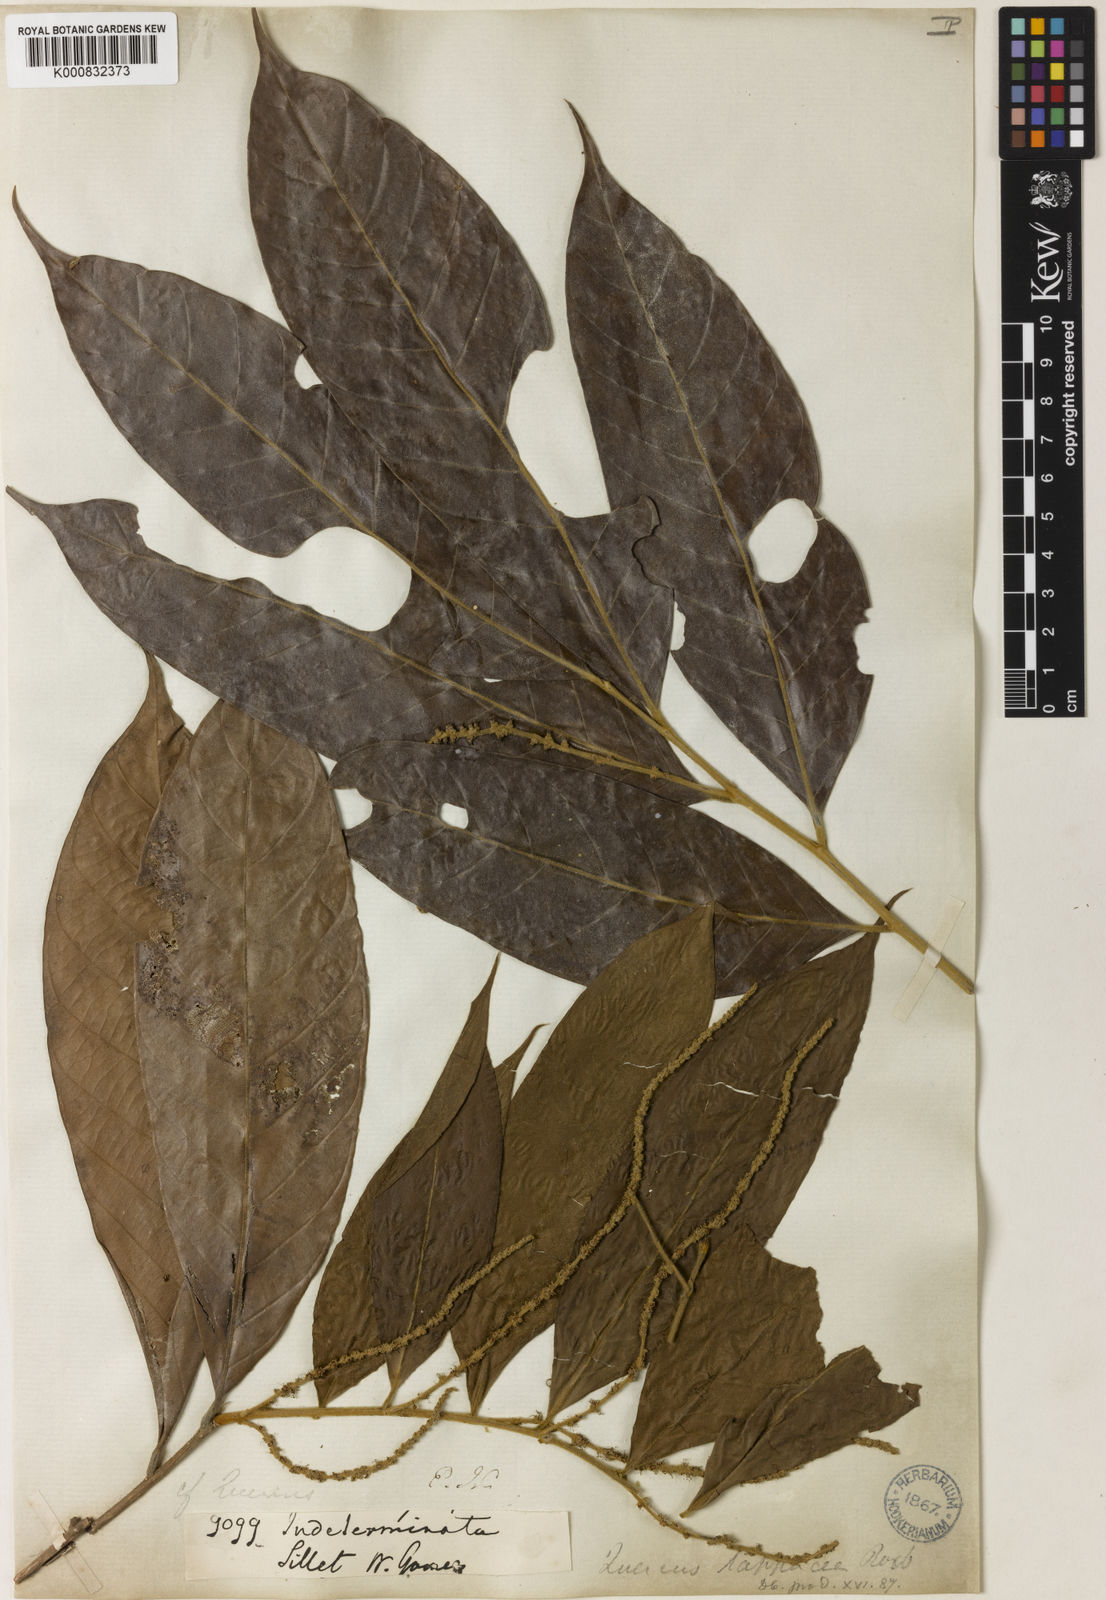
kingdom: Plantae
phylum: Tracheophyta
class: Magnoliopsida
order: Fagales
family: Fagaceae
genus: Lithocarpus
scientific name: Lithocarpus lappaceus
